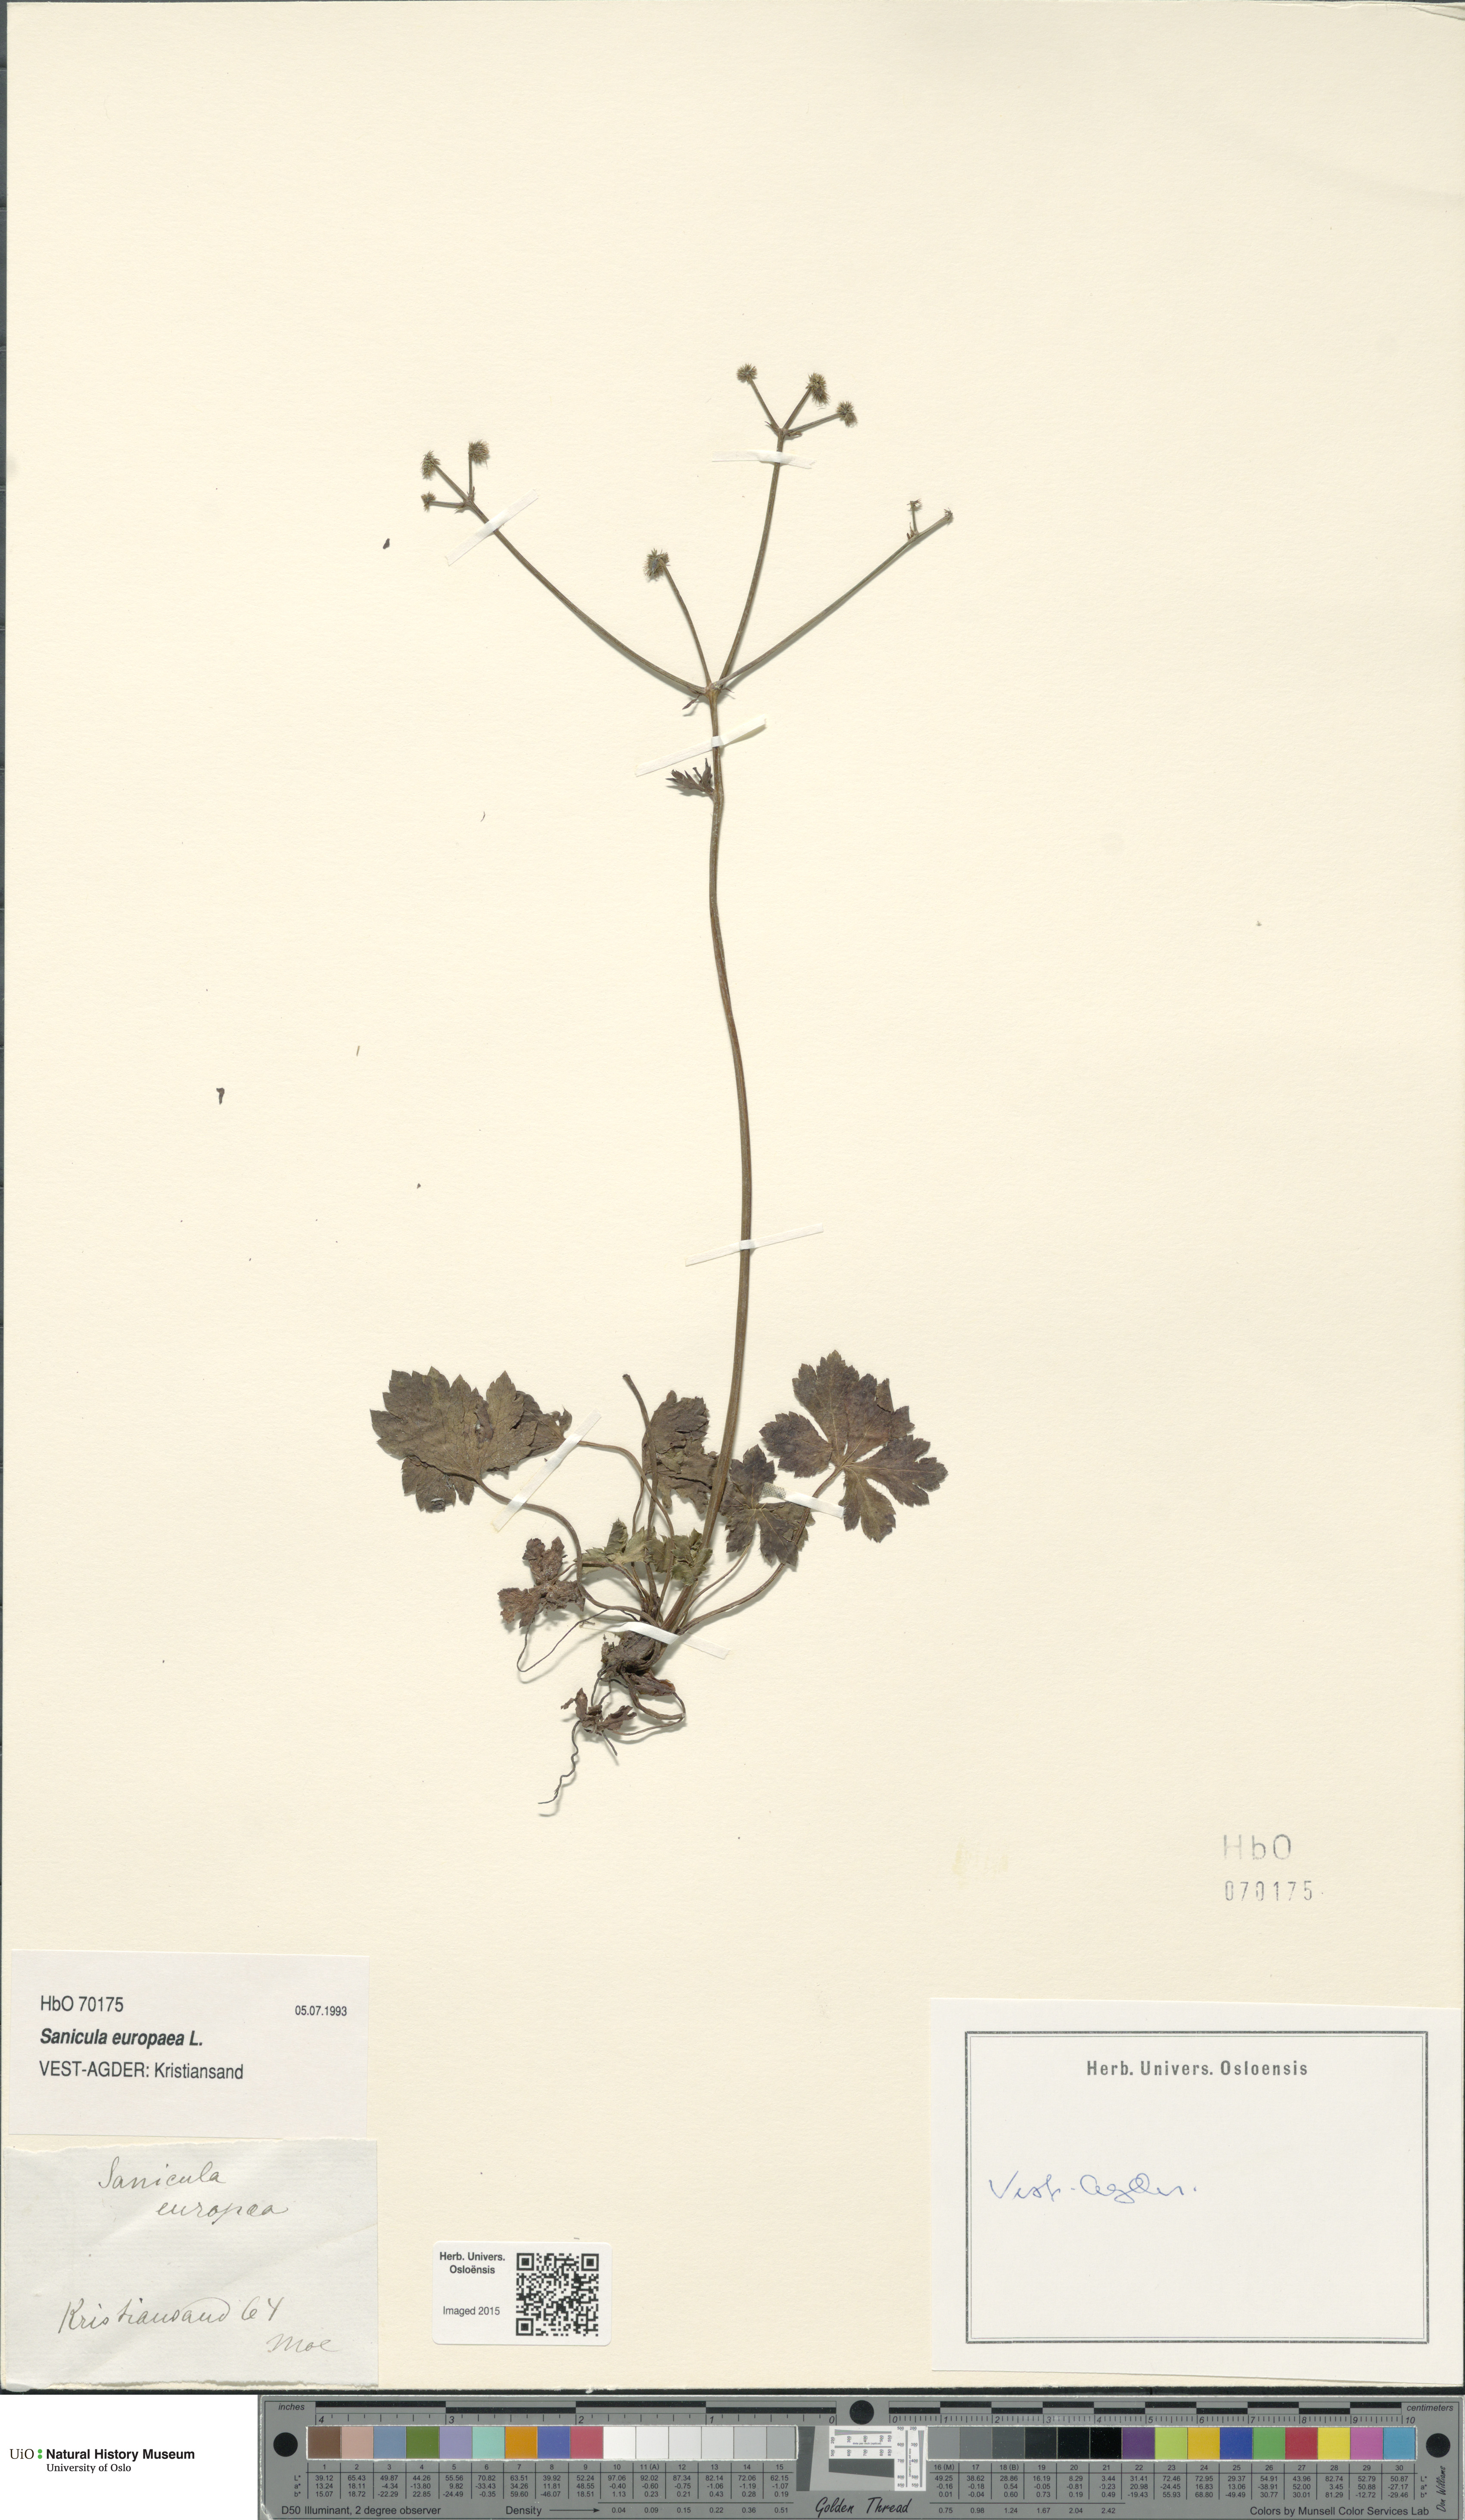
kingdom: Plantae
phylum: Tracheophyta
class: Magnoliopsida
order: Apiales
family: Apiaceae
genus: Sanicula
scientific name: Sanicula europaea
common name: Sanicle
